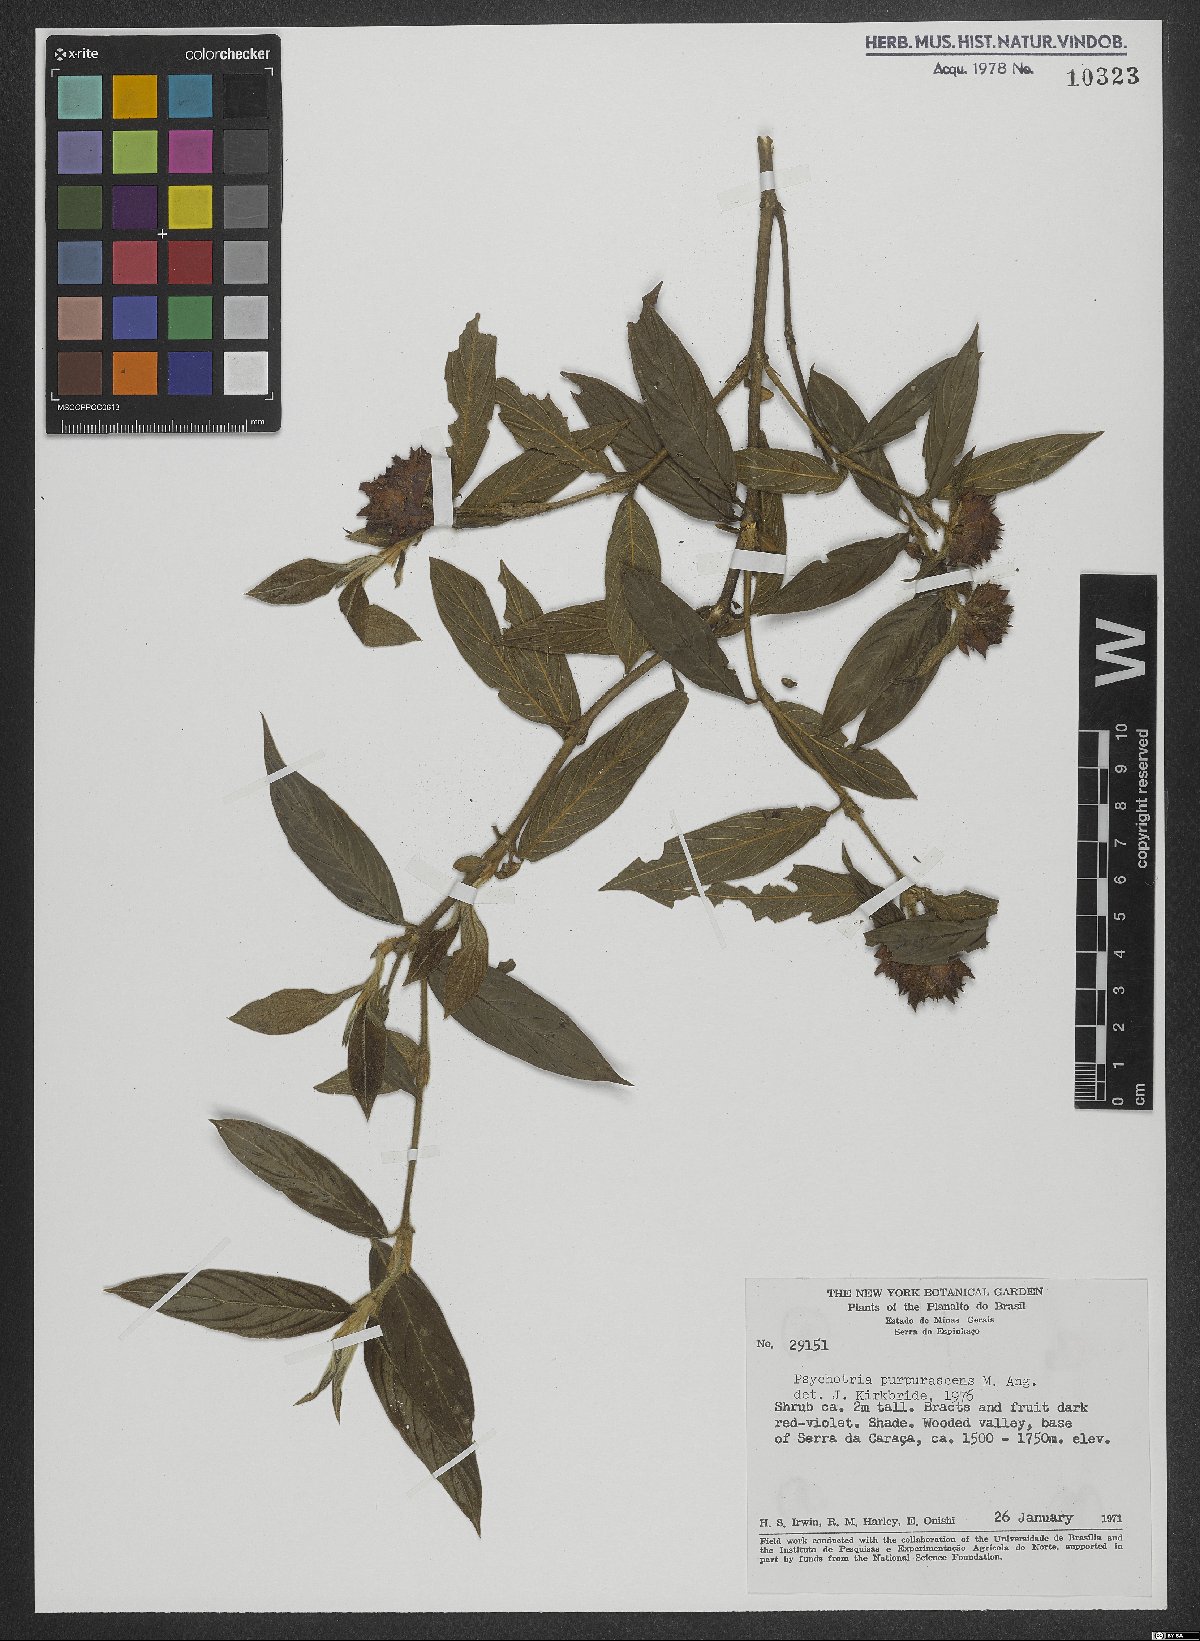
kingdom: Plantae
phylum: Tracheophyta
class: Magnoliopsida
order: Gentianales
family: Rubiaceae
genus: Psychotria
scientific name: Psychotria stachyoides
